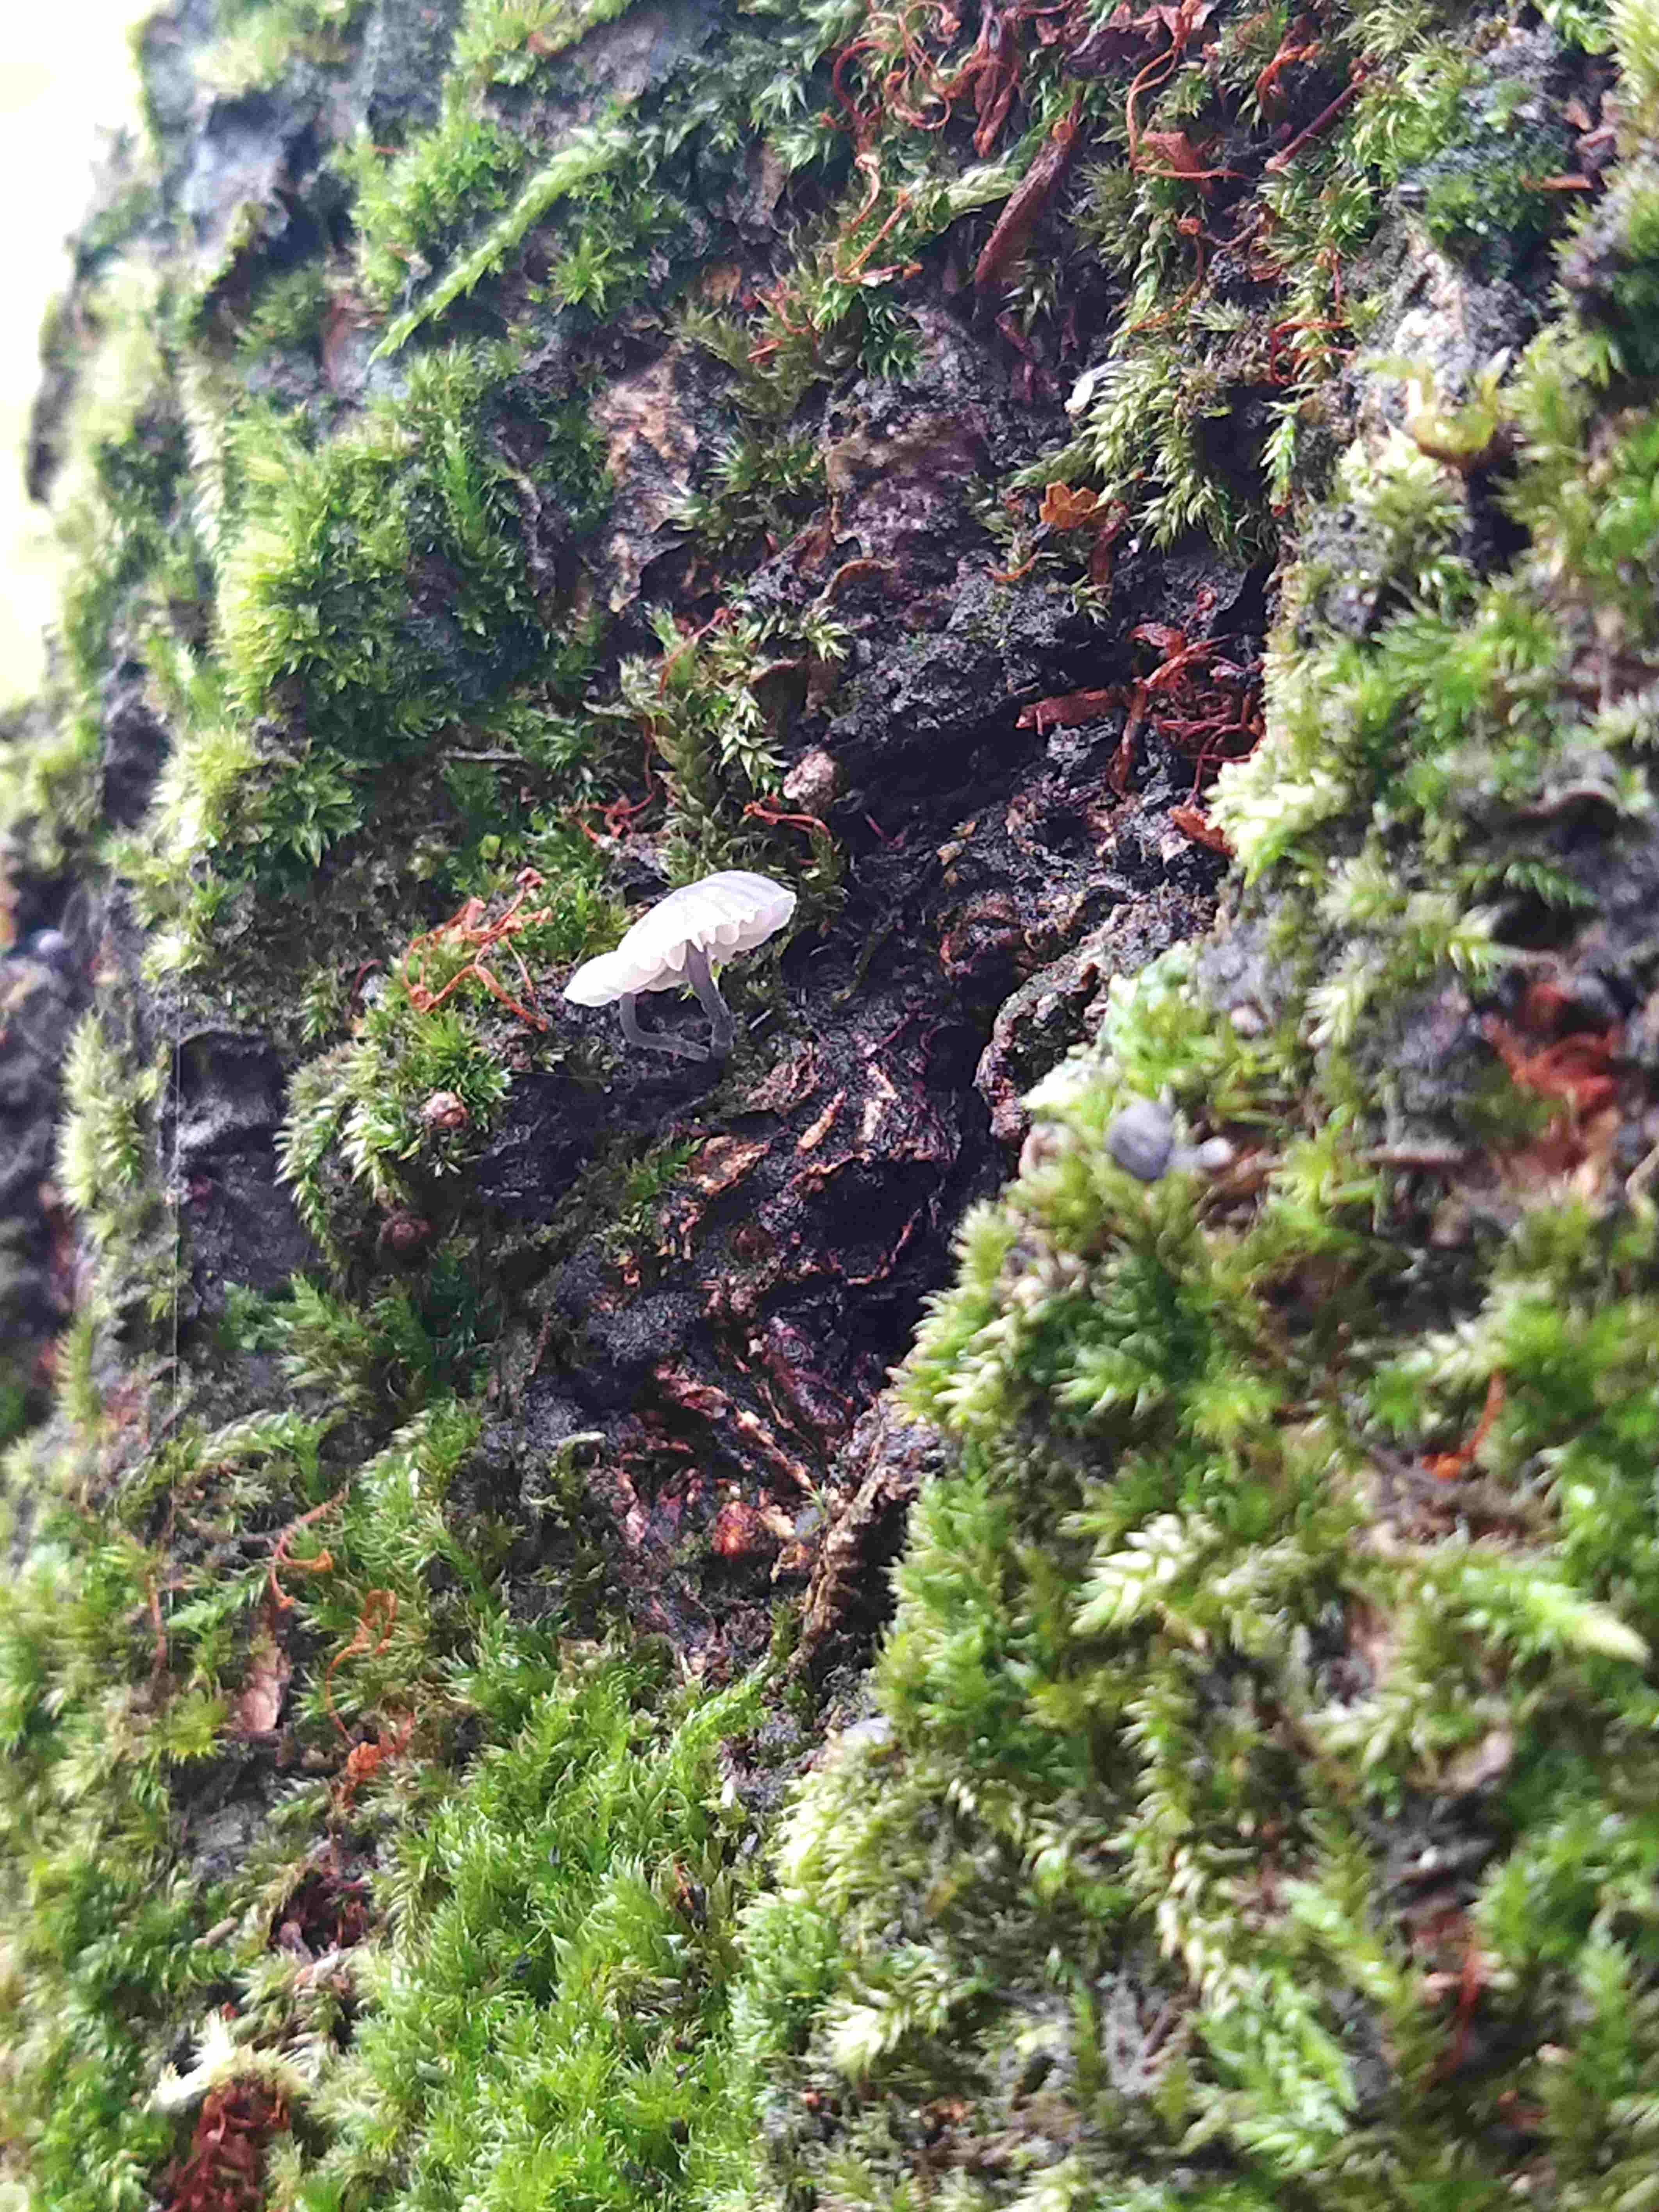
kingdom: Fungi
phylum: Basidiomycota
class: Agaricomycetes
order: Agaricales
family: Mycenaceae
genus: Mycena
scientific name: Mycena pseudocorticola
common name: gråblå bark-huesvamp
